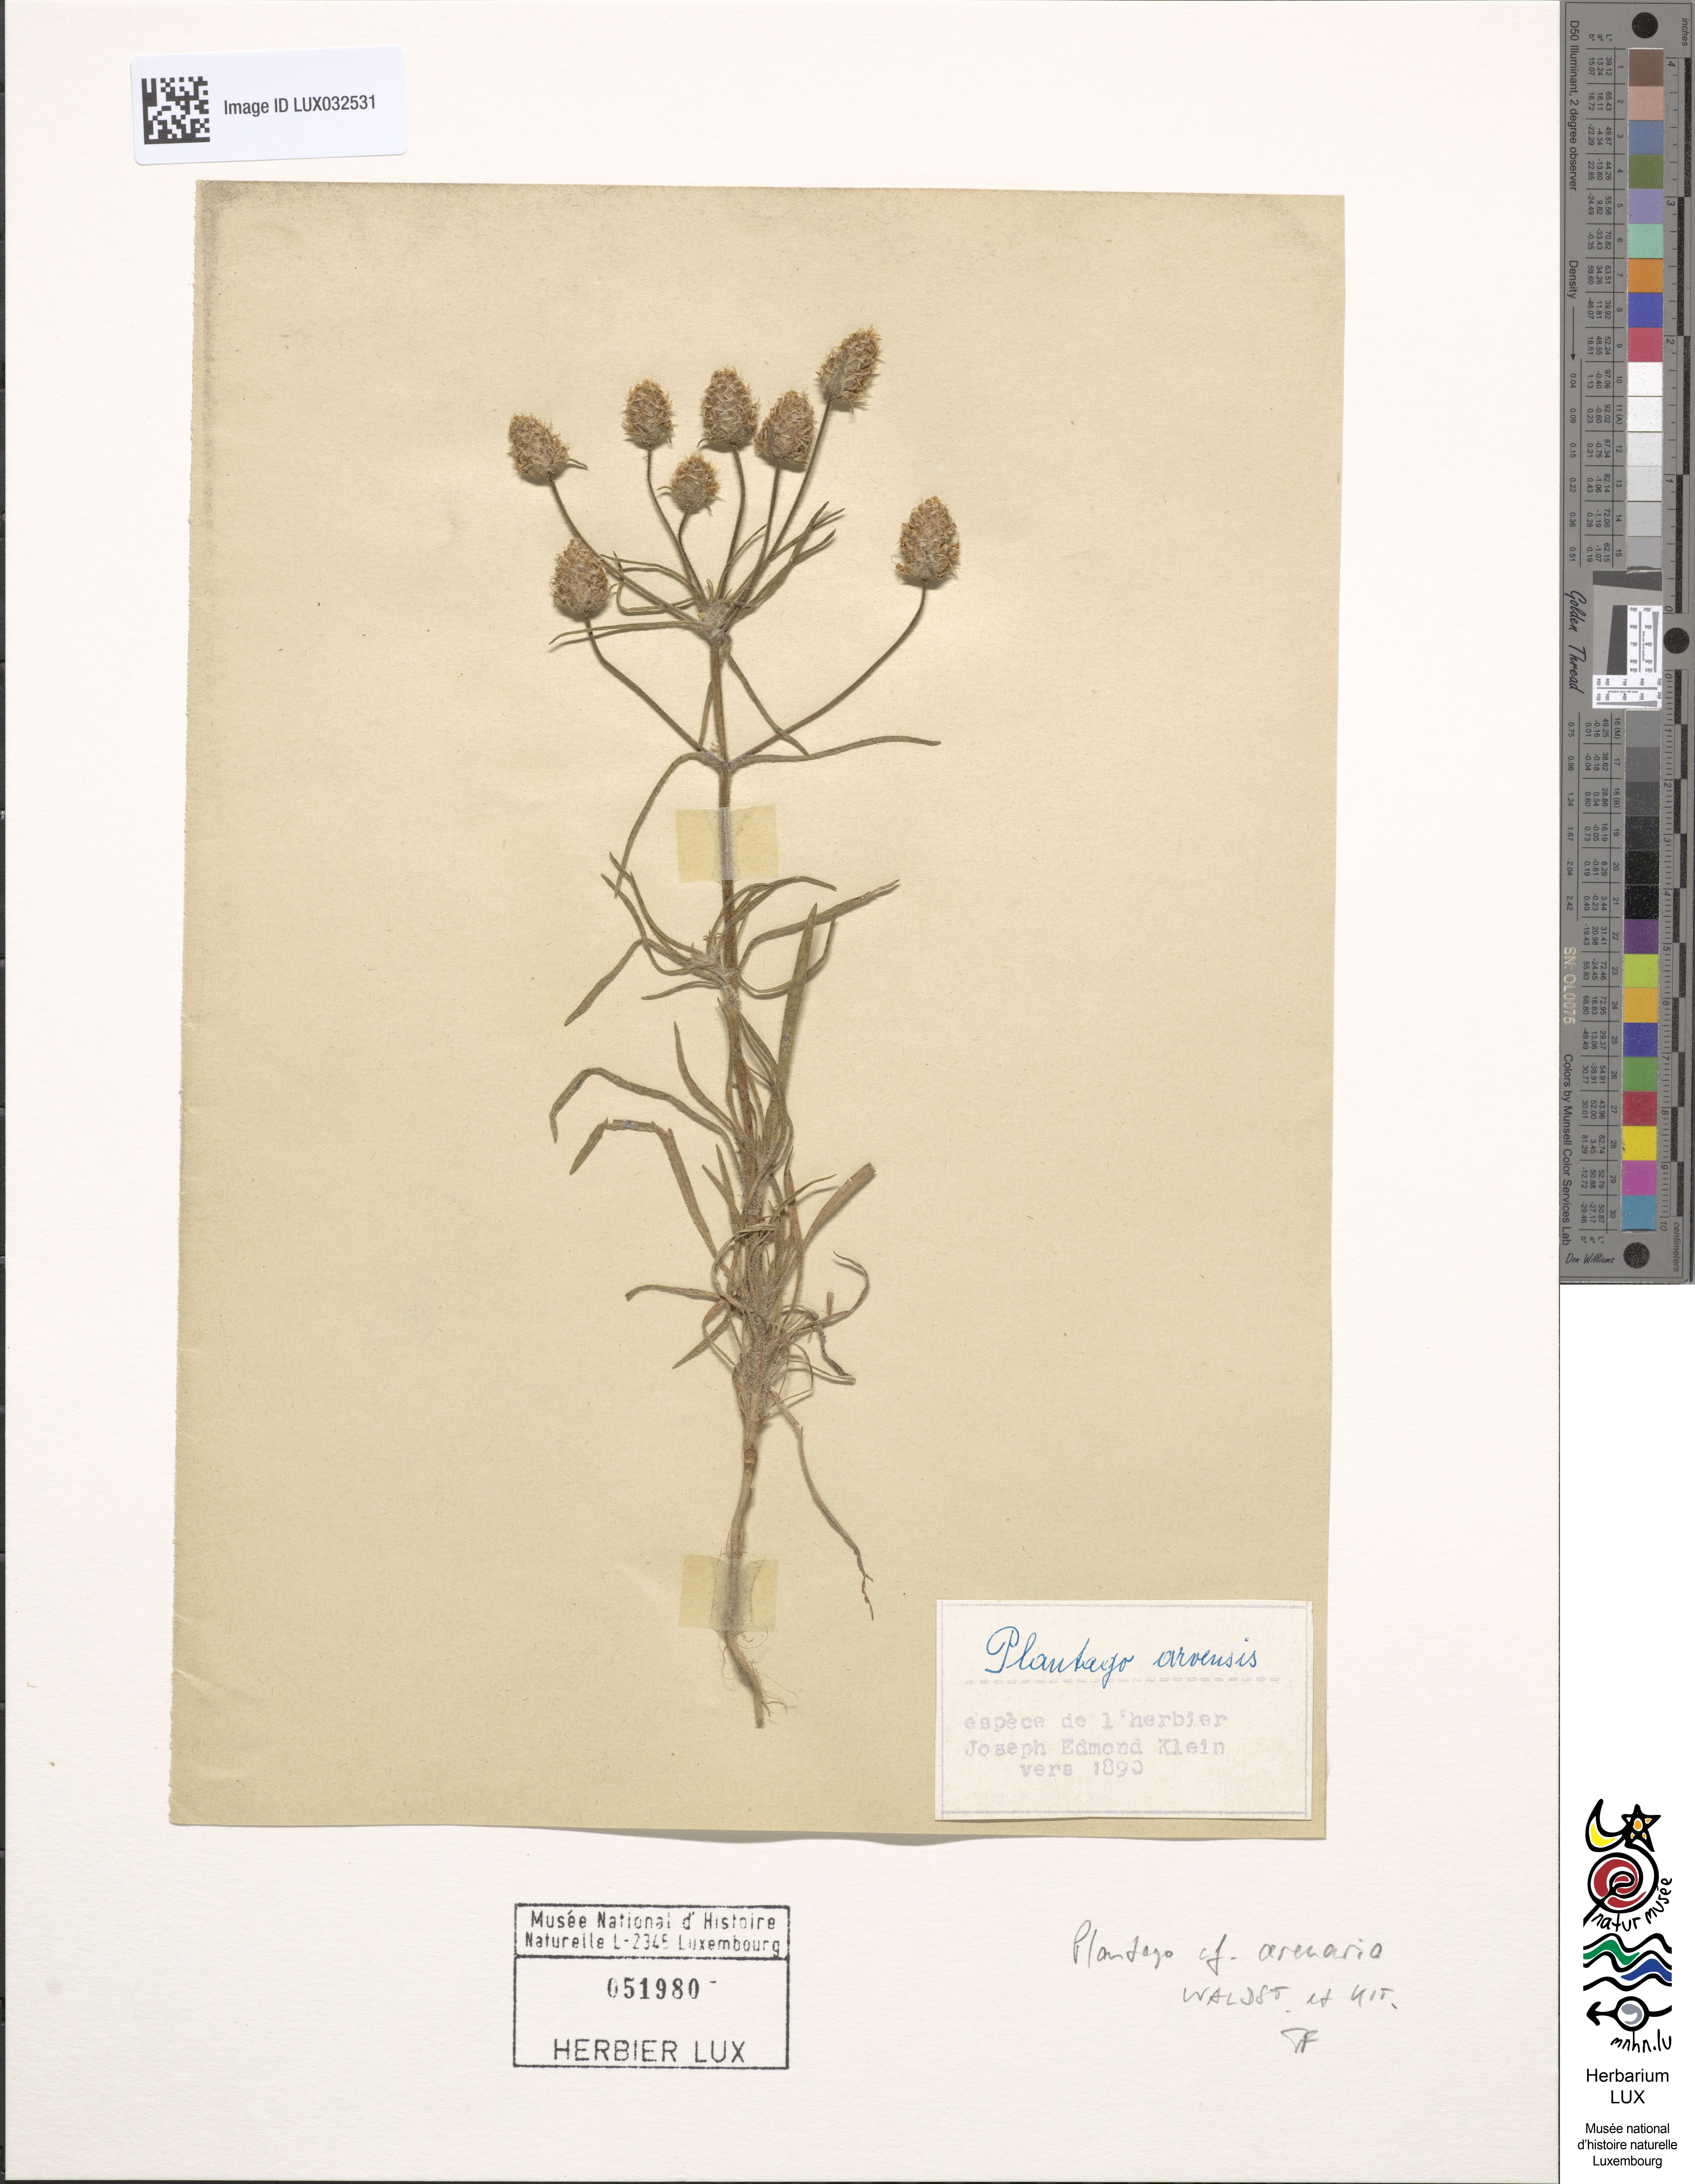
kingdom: Plantae
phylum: Tracheophyta
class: Magnoliopsida
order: Lamiales
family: Plantaginaceae
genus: Plantago
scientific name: Plantago arenaria
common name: Branched plantain
